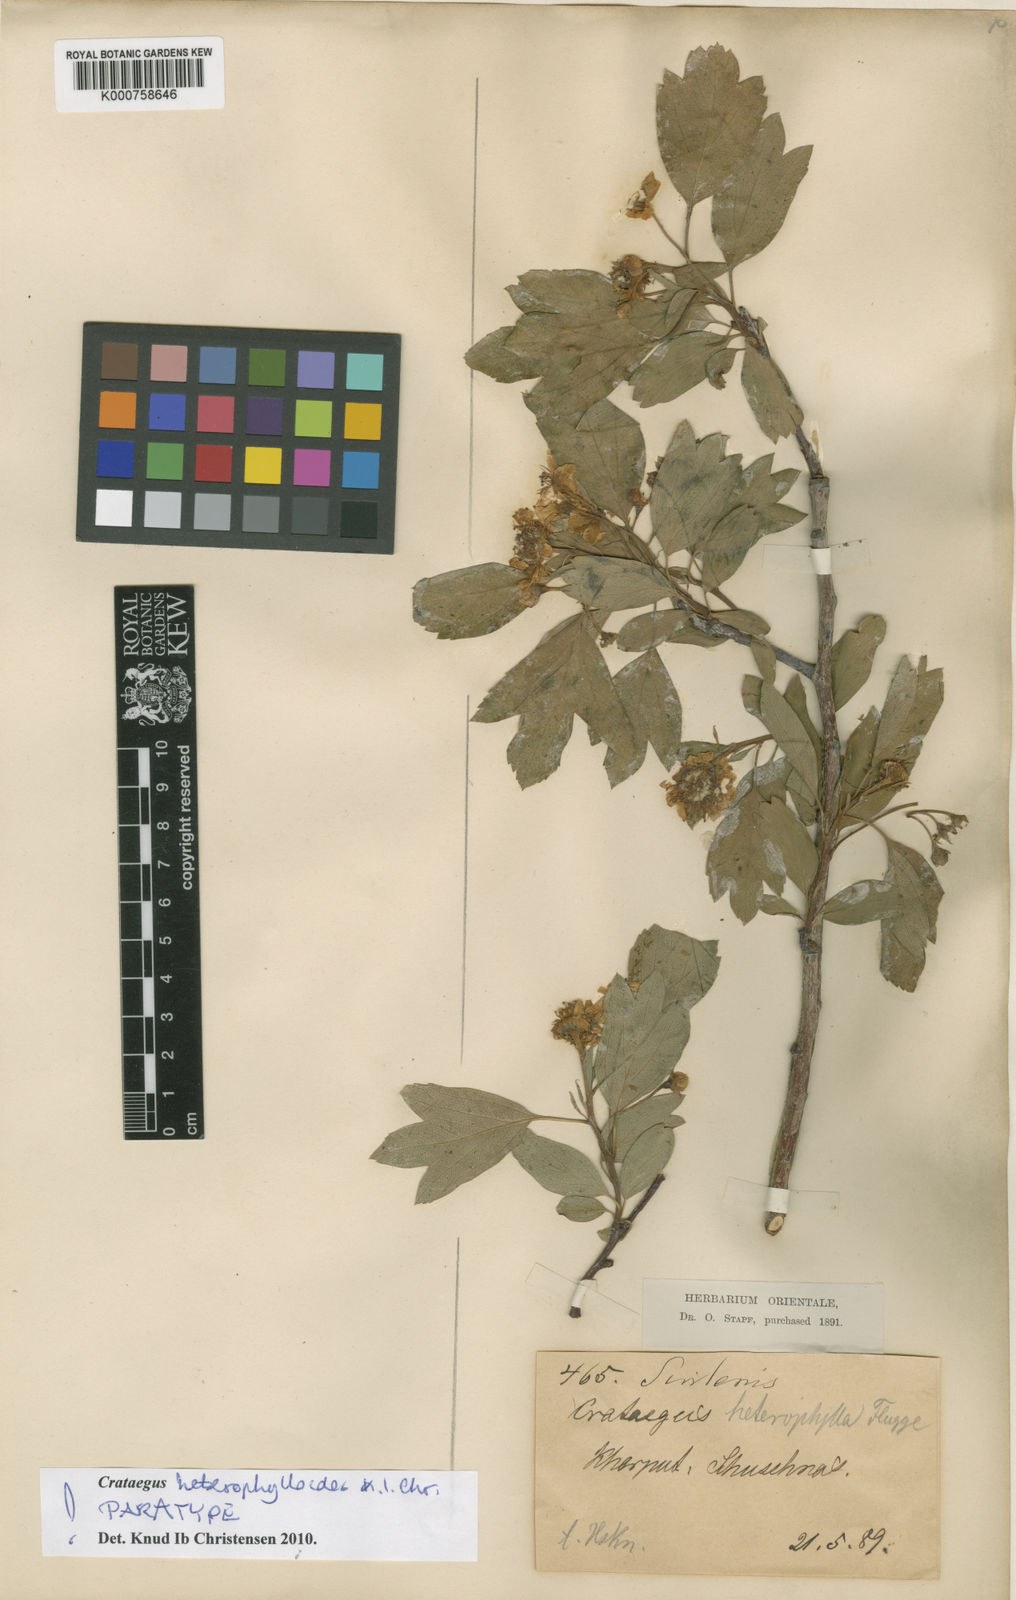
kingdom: Plantae
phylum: Tracheophyta
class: Magnoliopsida
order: Rosales
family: Rosaceae
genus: Crataegus
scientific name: Crataegus
